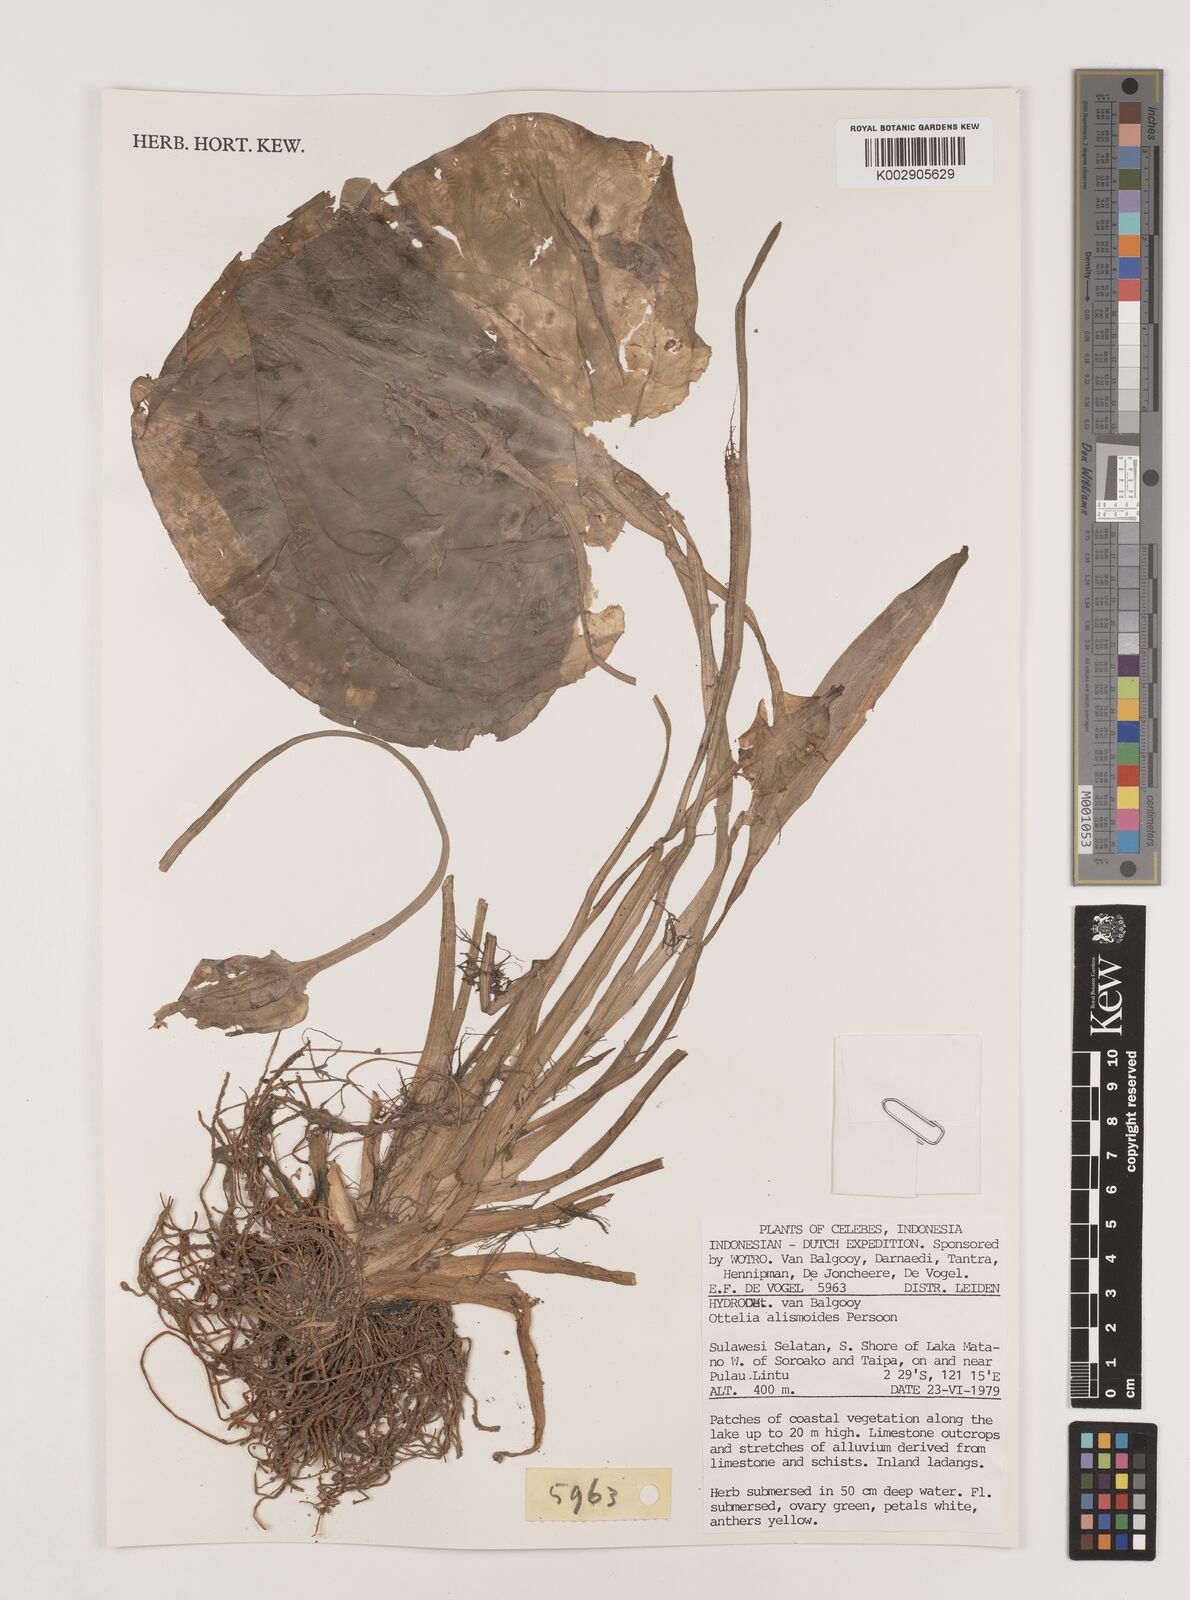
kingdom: Plantae
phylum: Tracheophyta
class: Liliopsida
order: Alismatales
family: Hydrocharitaceae
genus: Ottelia
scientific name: Ottelia alismoides
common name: Duck-lettuce
